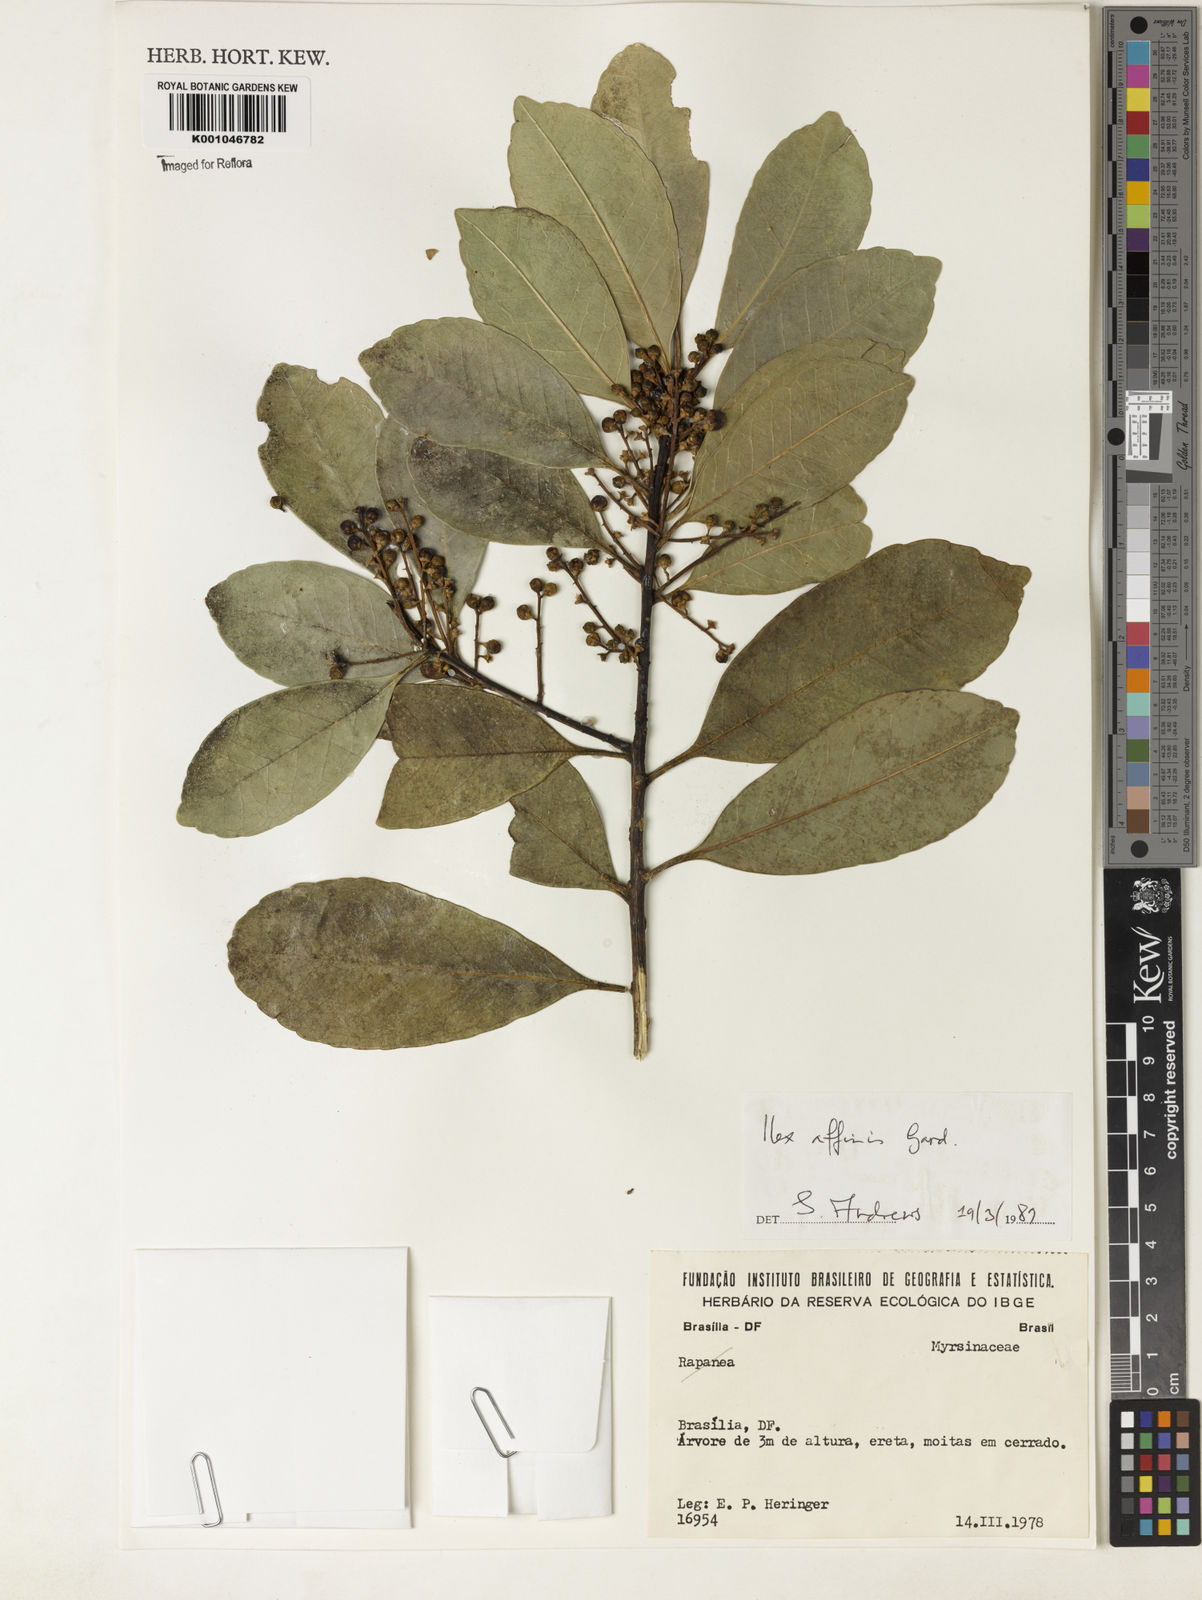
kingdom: Plantae
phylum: Tracheophyta
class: Magnoliopsida
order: Aquifoliales
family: Aquifoliaceae
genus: Ilex
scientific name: Ilex affinis
